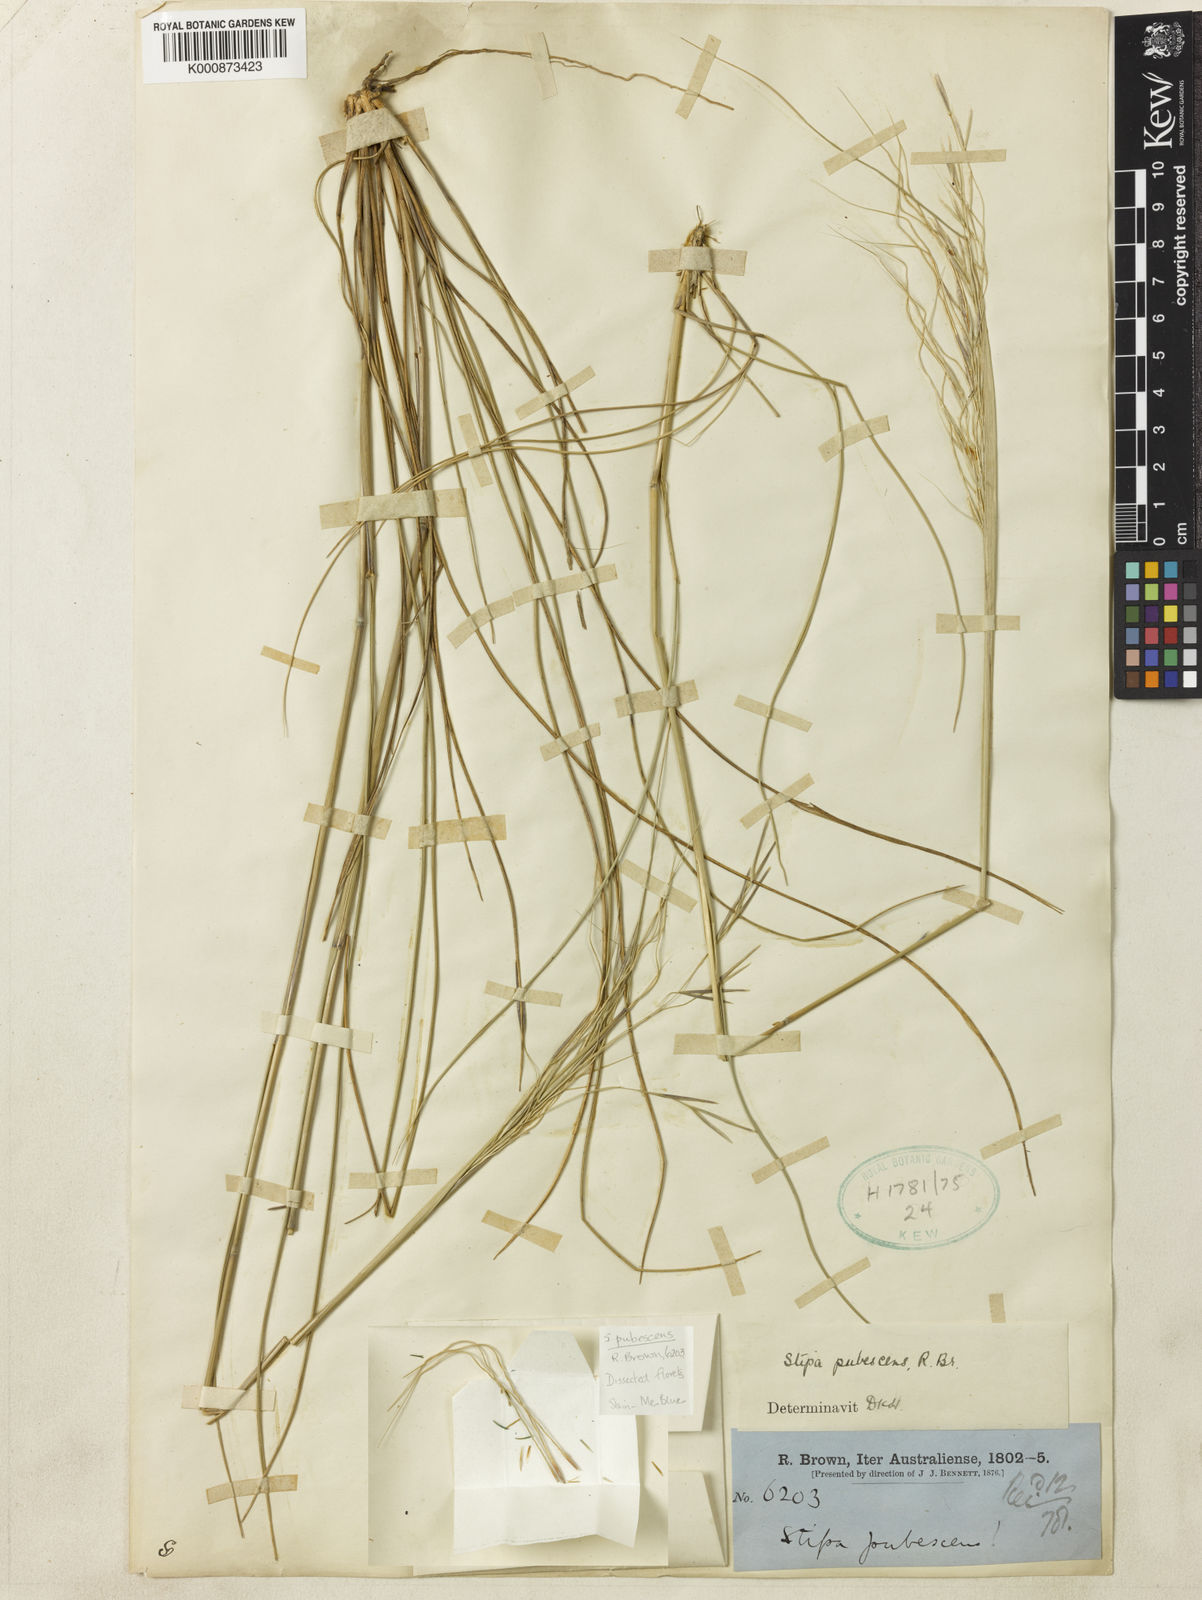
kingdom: Plantae
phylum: Tracheophyta
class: Liliopsida
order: Poales
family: Poaceae
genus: Austrostipa
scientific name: Austrostipa pubescens
